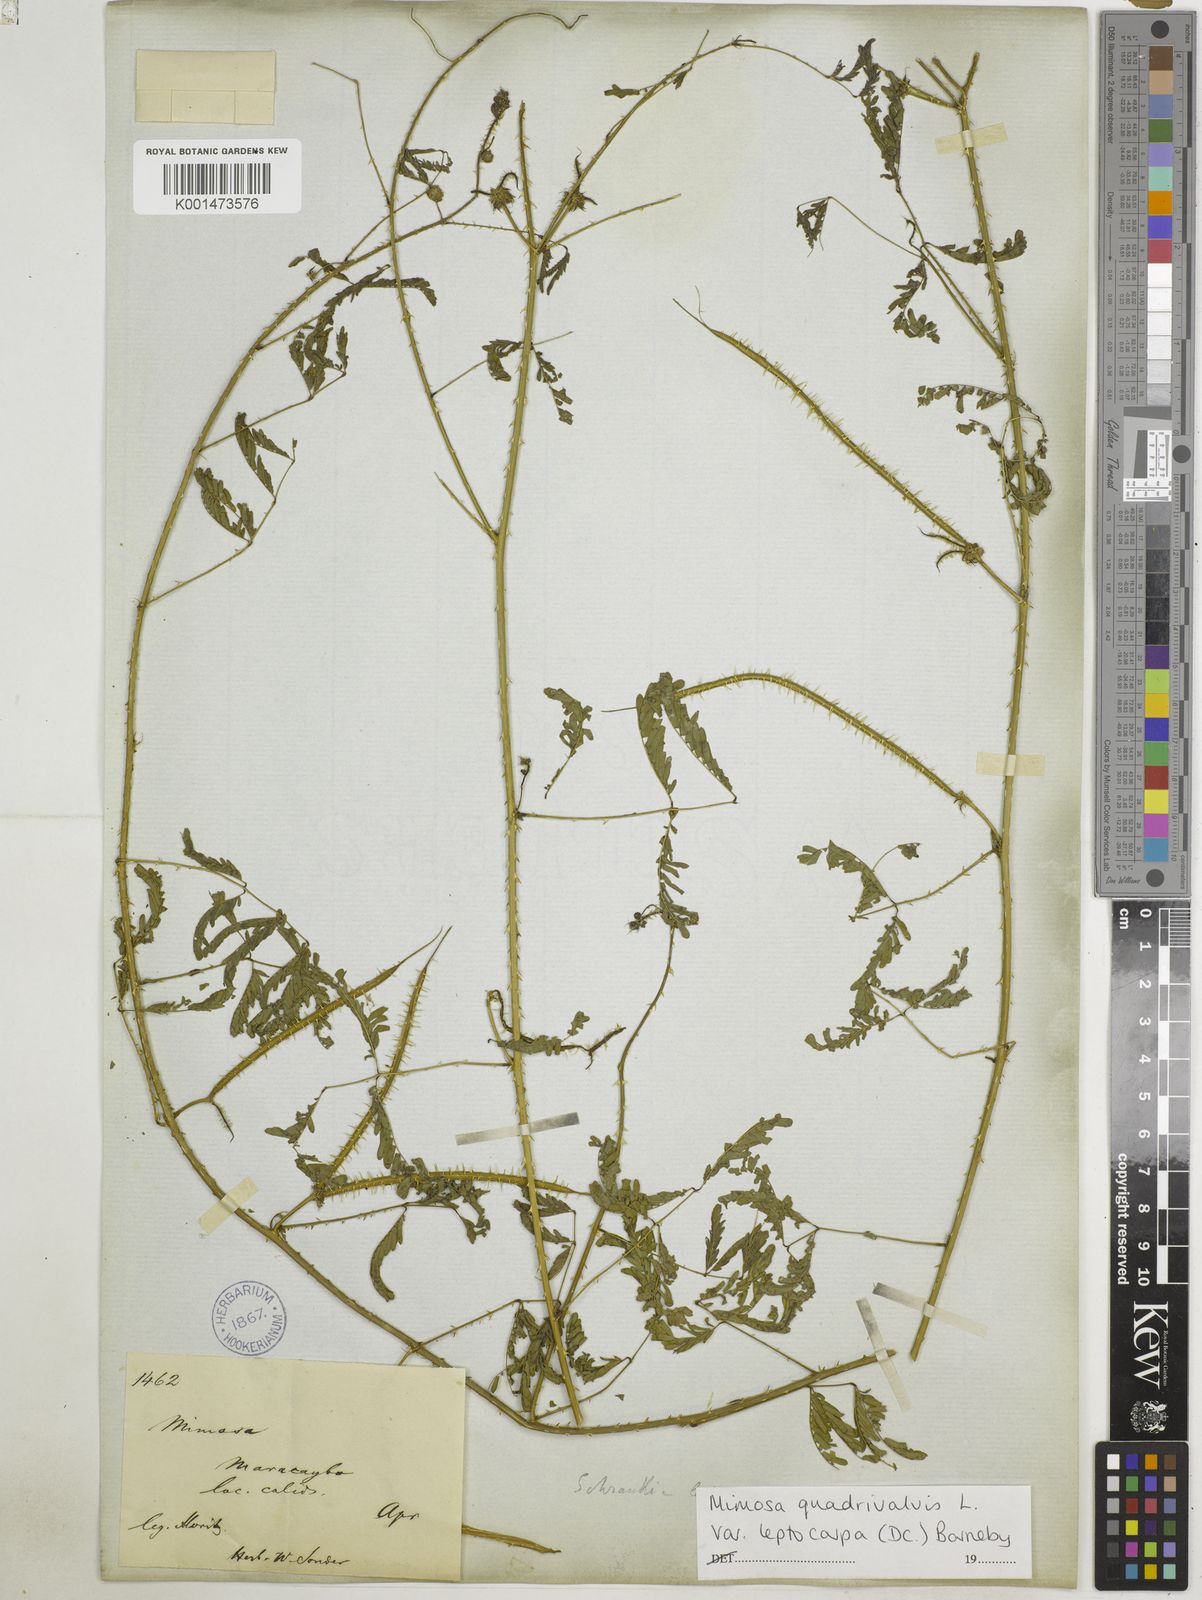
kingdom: Plantae
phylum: Tracheophyta
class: Magnoliopsida
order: Fabales
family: Fabaceae
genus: Mimosa
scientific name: Mimosa candollei
